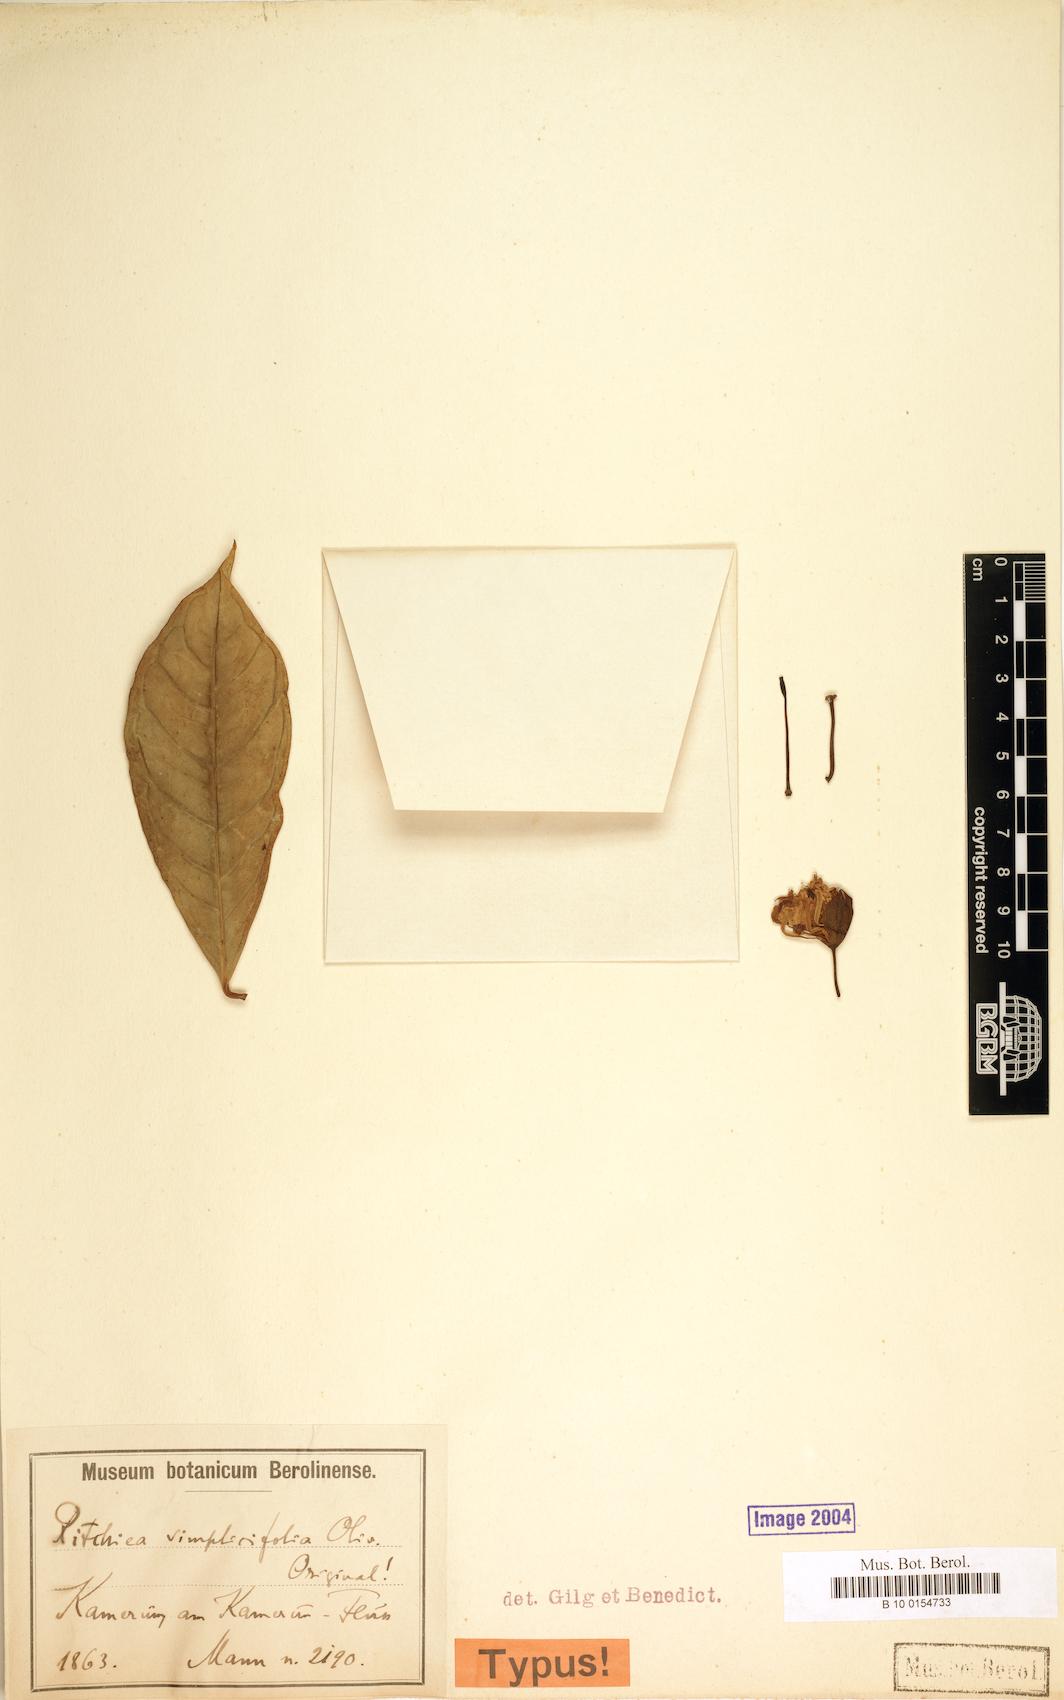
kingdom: Plantae
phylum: Tracheophyta
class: Magnoliopsida
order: Brassicales
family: Capparaceae
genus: Ritchiea
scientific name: Ritchiea simplicifolia
